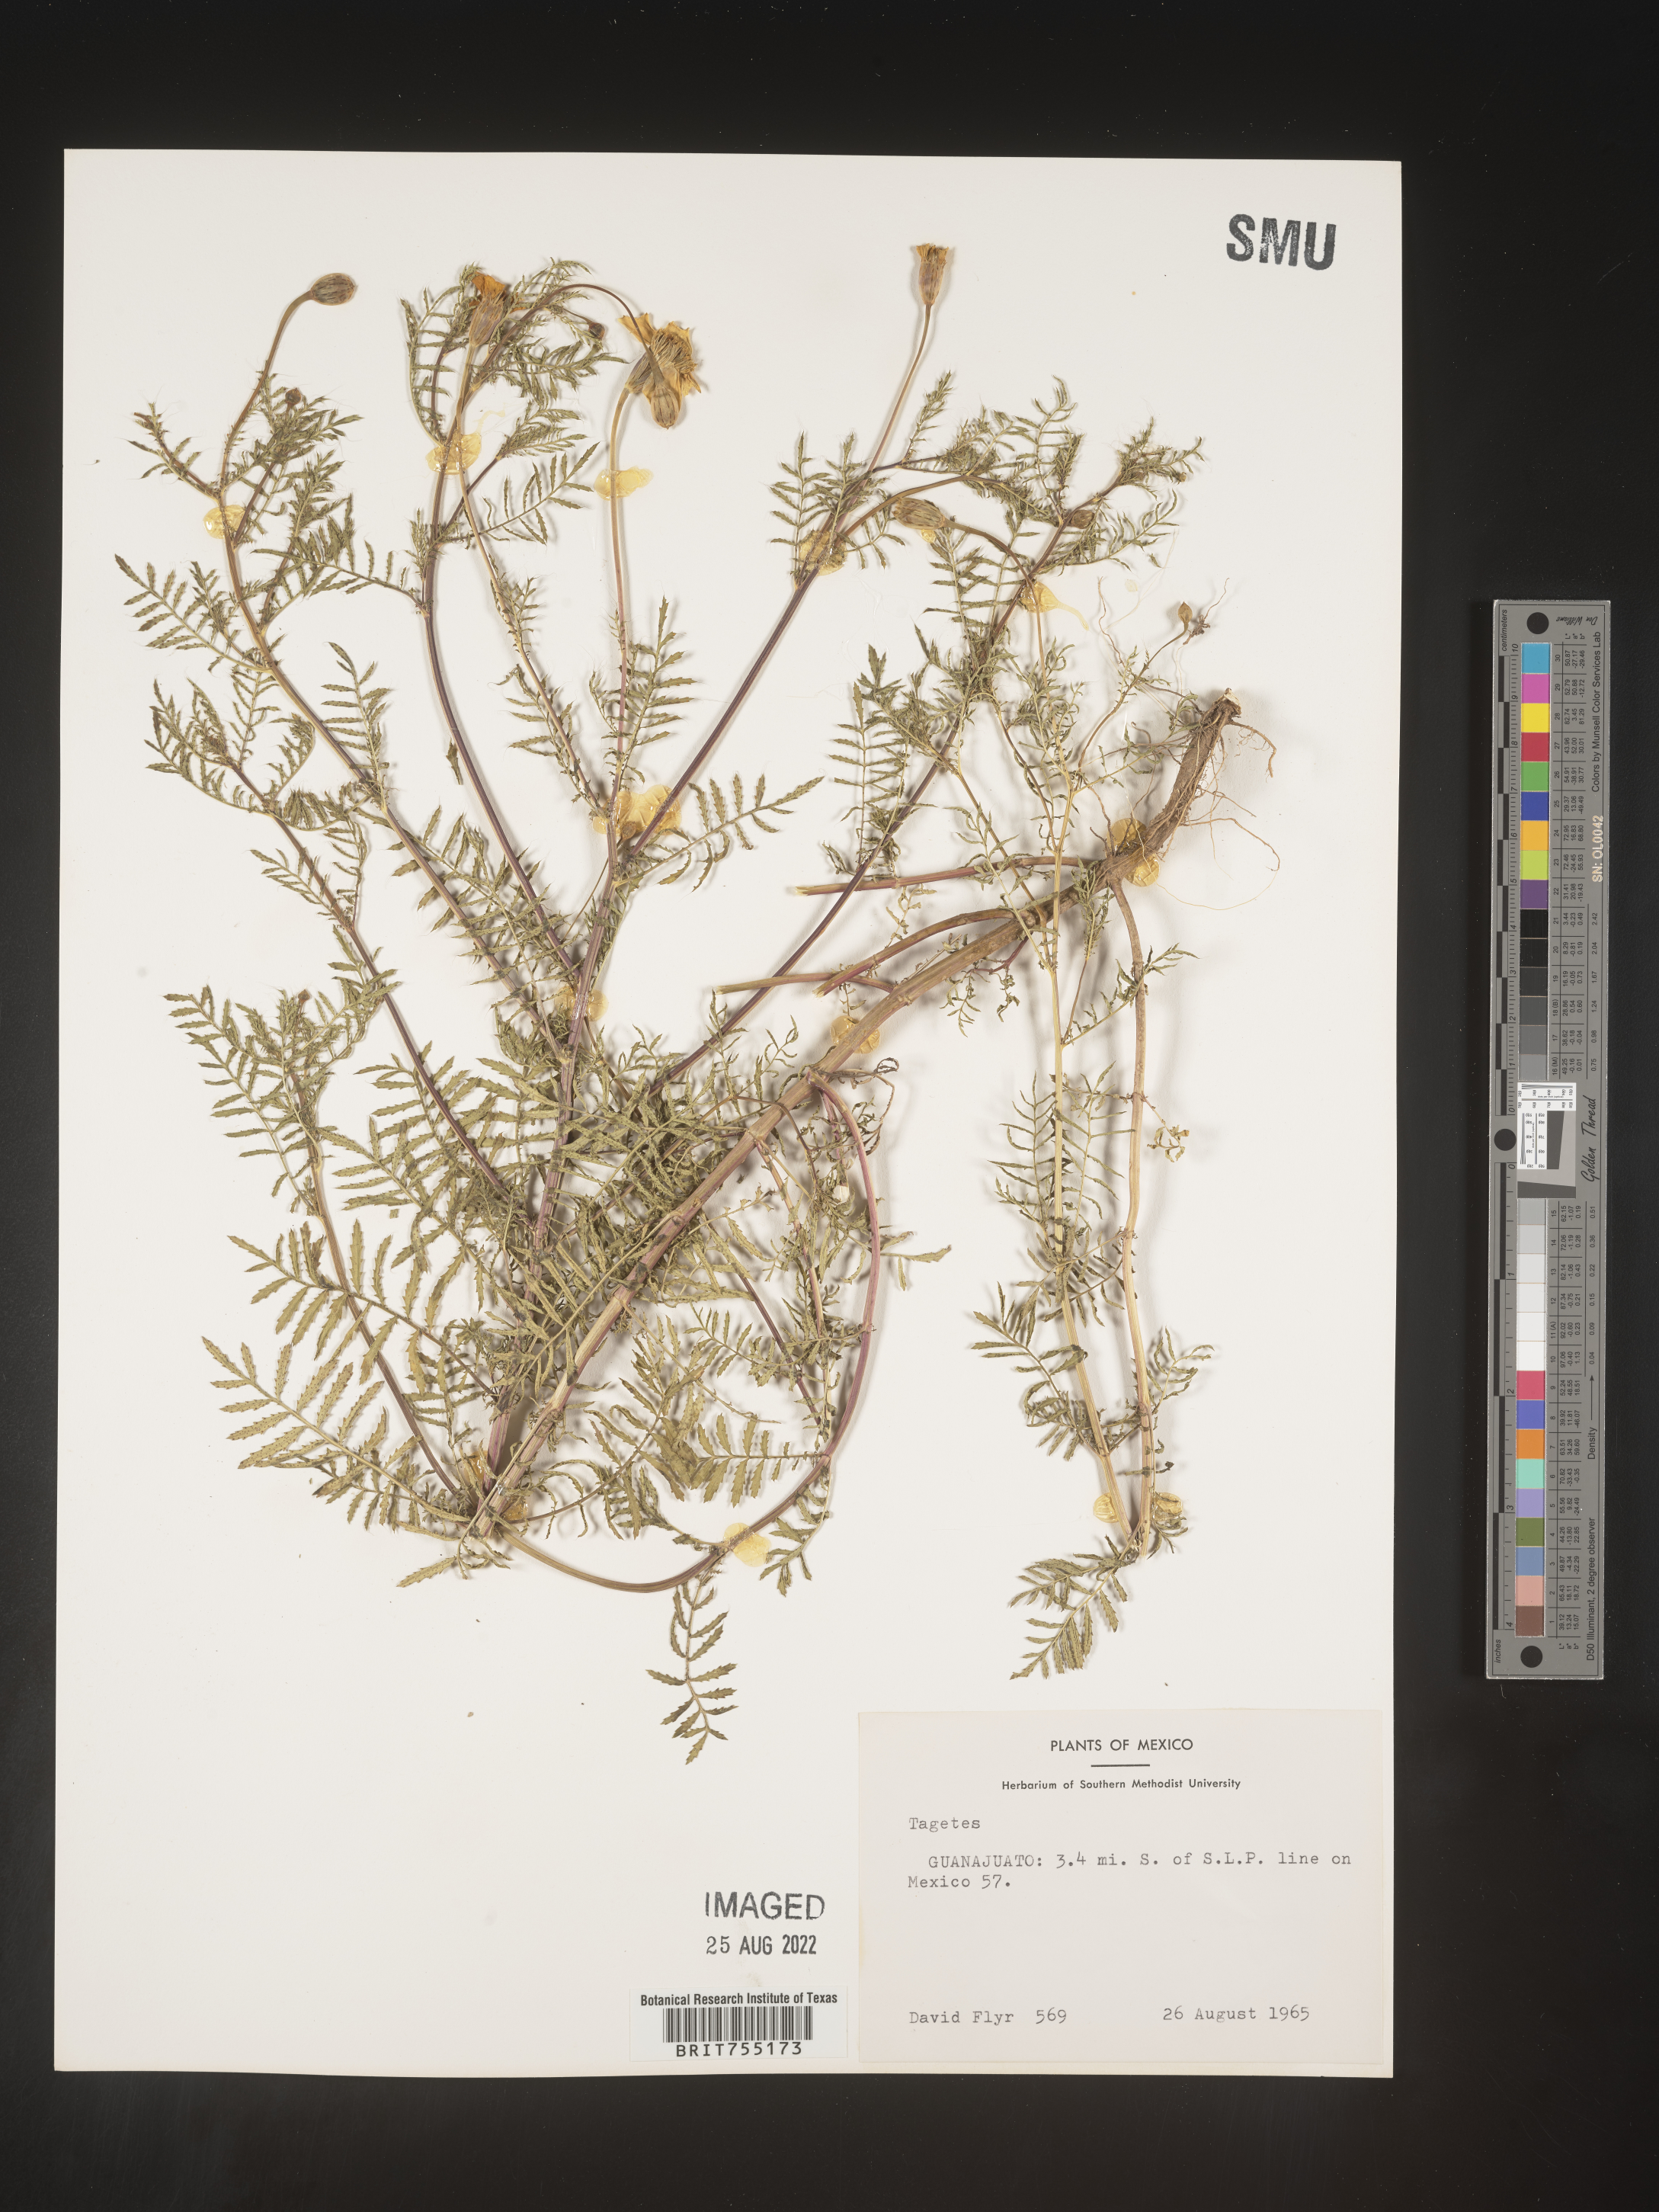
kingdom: Plantae
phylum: Tracheophyta
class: Magnoliopsida
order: Asterales
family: Asteraceae
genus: Tagetes
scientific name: Tagetes
